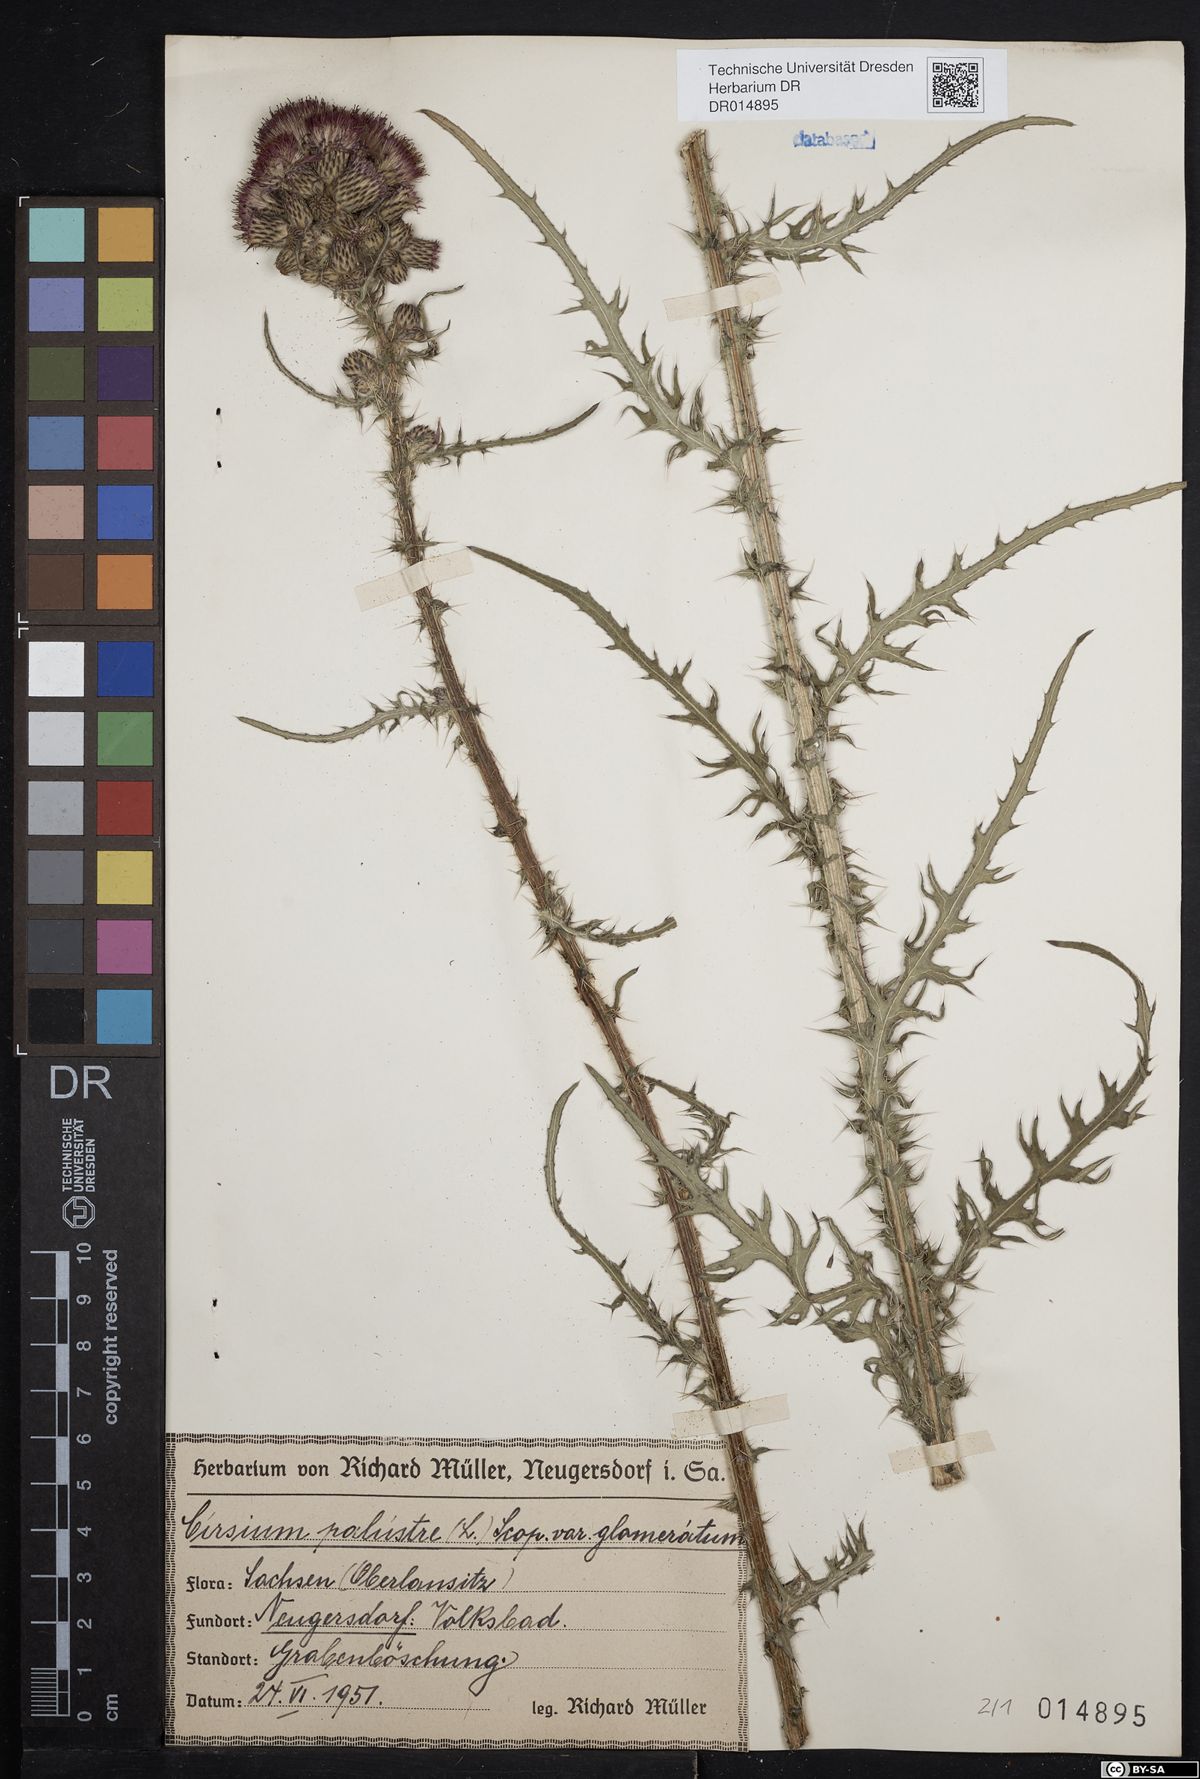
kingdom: Plantae
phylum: Tracheophyta
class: Magnoliopsida
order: Asterales
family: Asteraceae
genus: Cirsium
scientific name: Cirsium palustre
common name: Marsh thistle
